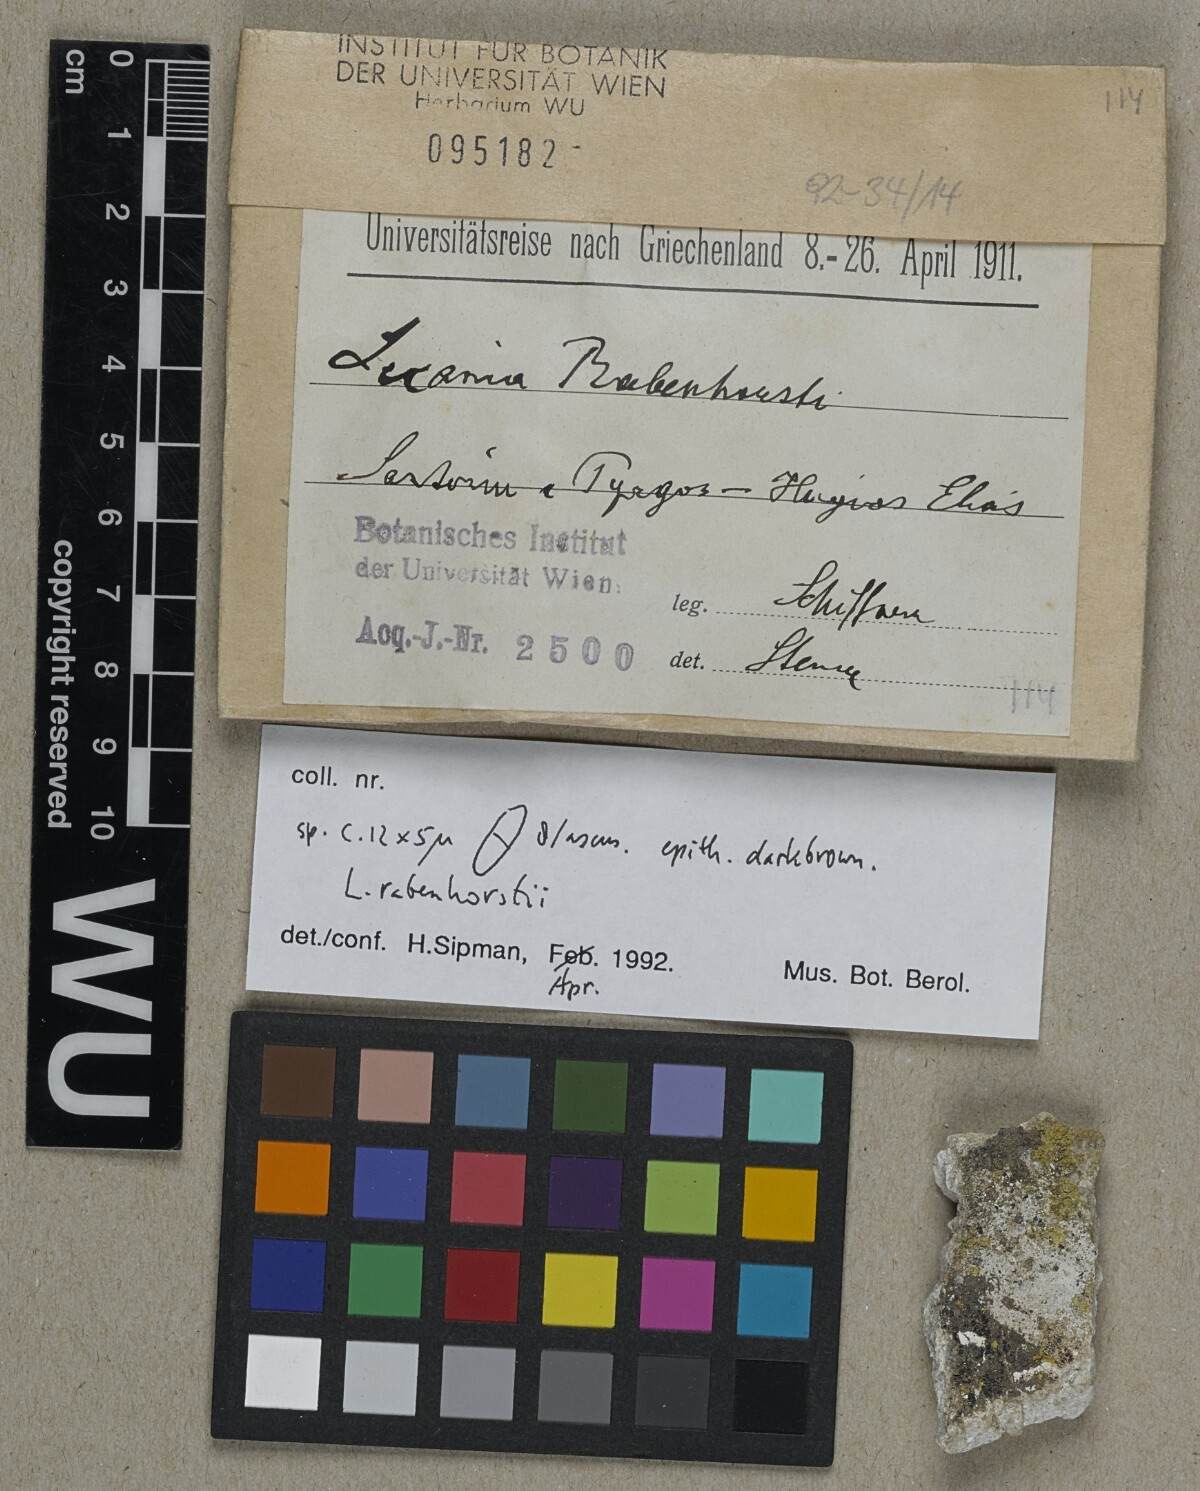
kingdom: Fungi
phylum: Ascomycota
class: Lecanoromycetes
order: Lecanorales
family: Ramalinaceae
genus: Lecania
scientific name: Lecania rabenhorstii
